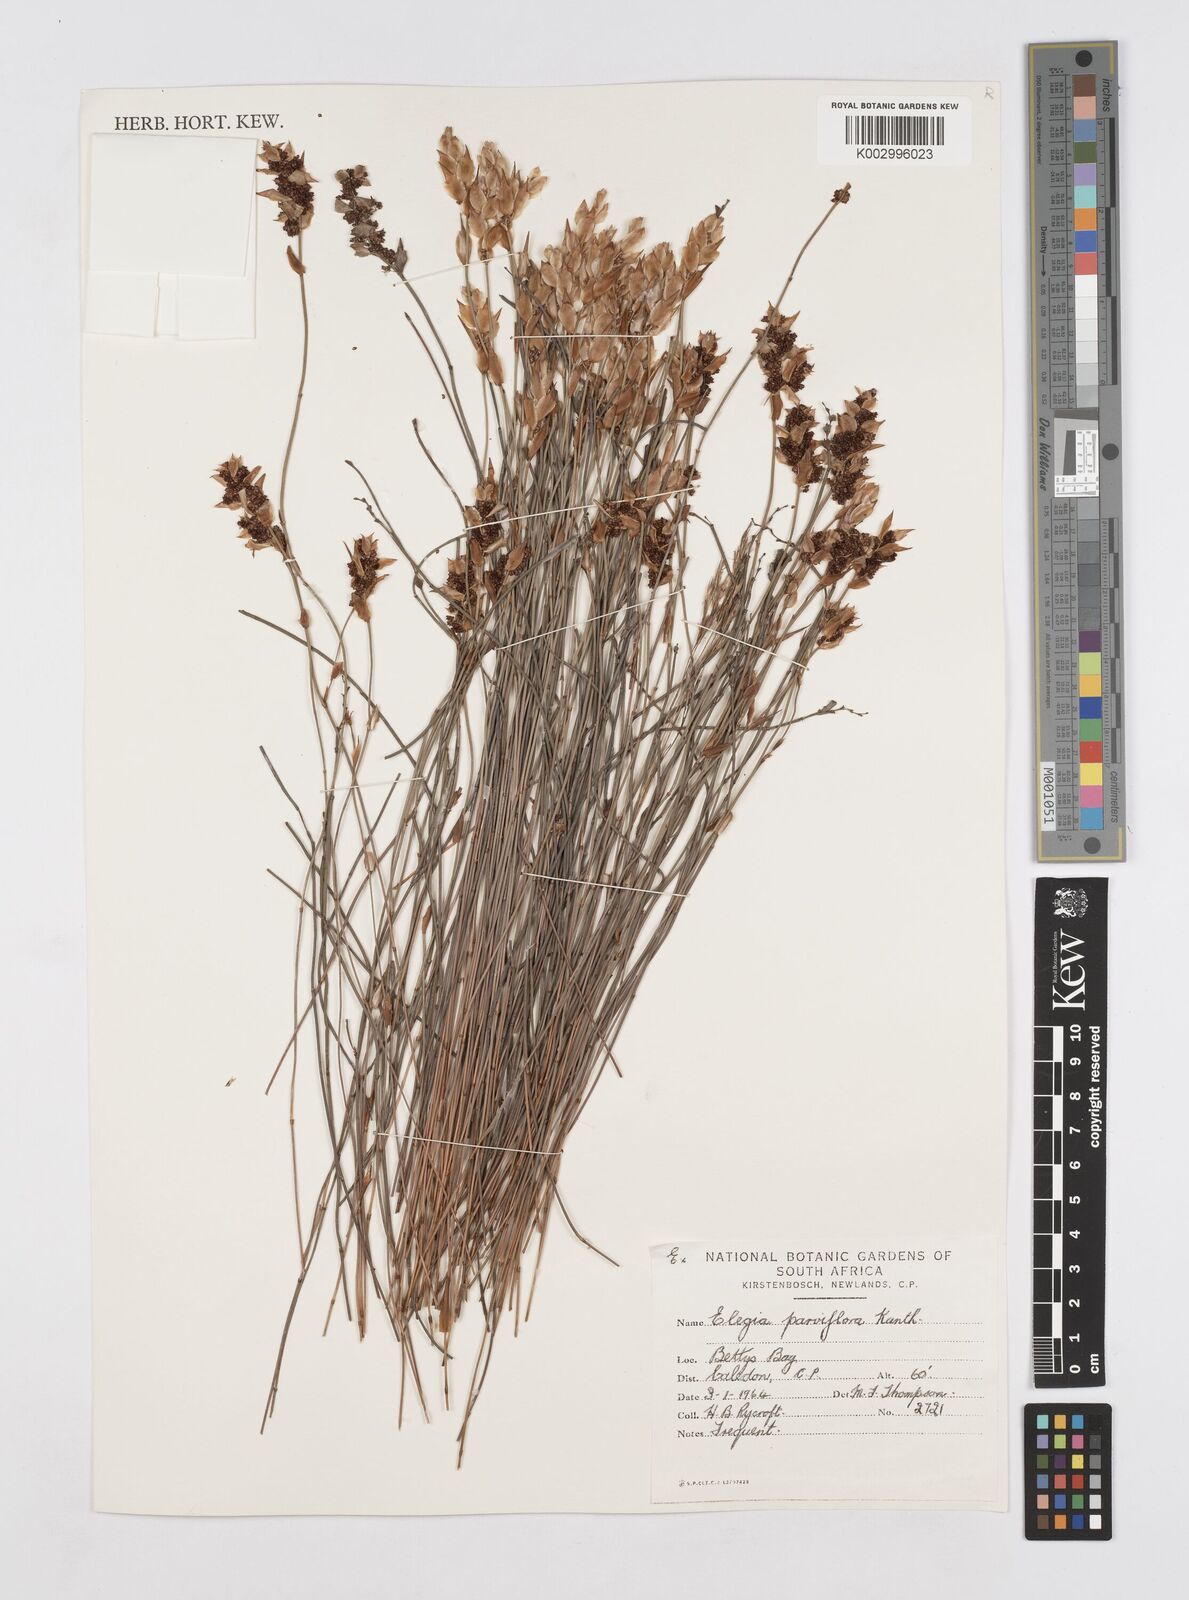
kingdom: Plantae
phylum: Tracheophyta
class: Liliopsida
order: Poales
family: Restionaceae
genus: Cannomois
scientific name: Cannomois parviflora
